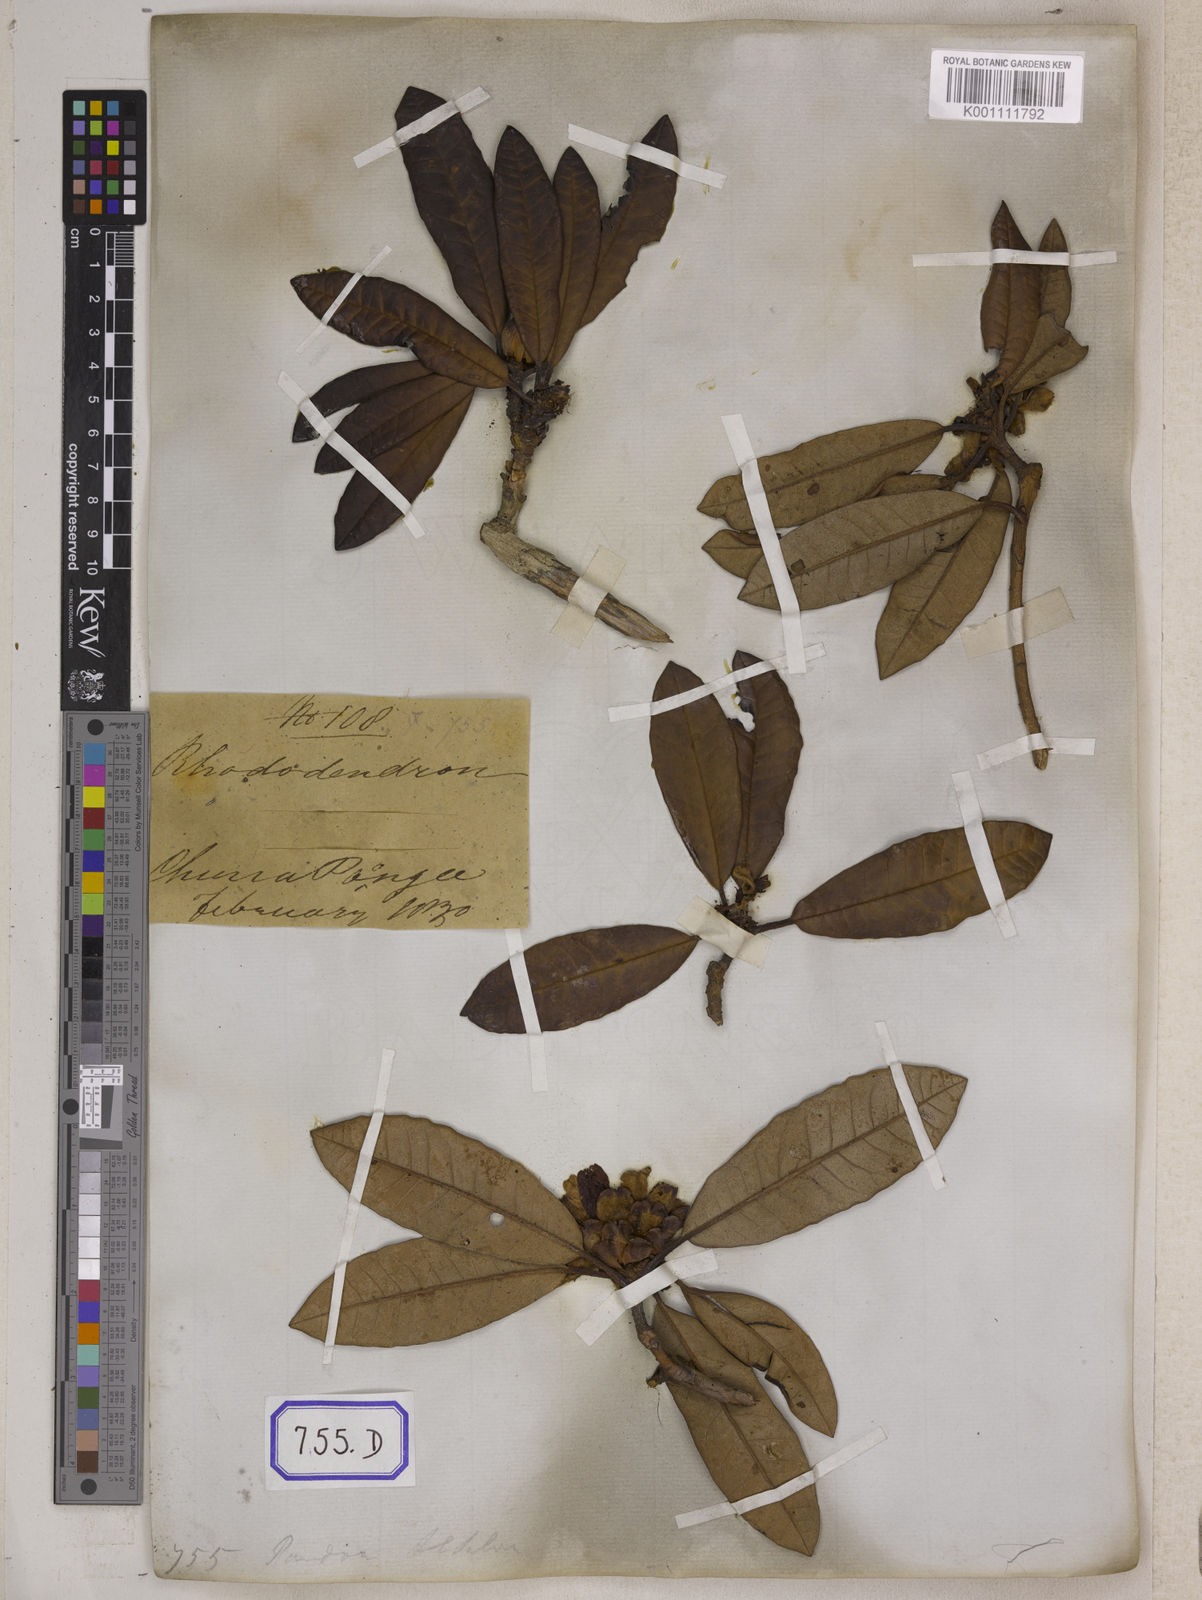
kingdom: Plantae
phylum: Tracheophyta
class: Magnoliopsida
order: Ericales
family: Ericaceae
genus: Rhododendron
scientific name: Rhododendron arboreum
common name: Tree rhododendron
